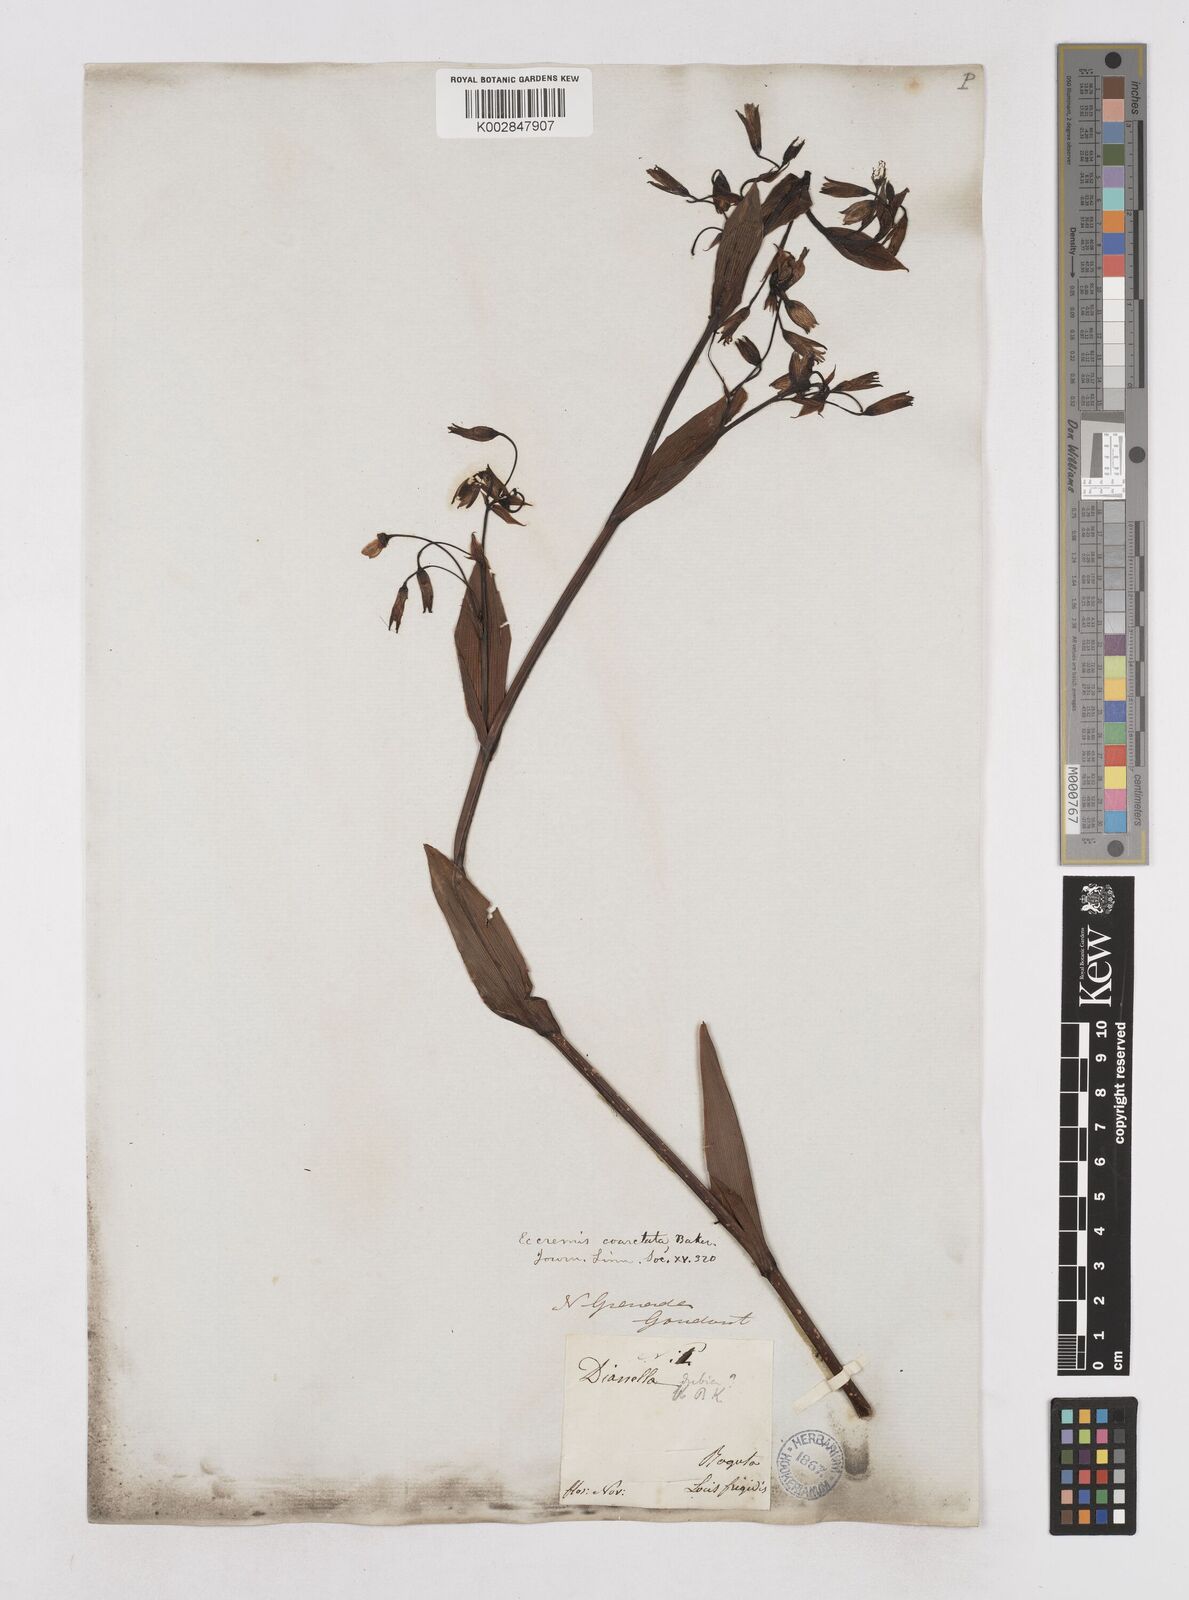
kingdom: Plantae
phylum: Tracheophyta
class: Liliopsida
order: Asparagales
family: Asphodelaceae
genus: Excremis
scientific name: Excremis coarctata
